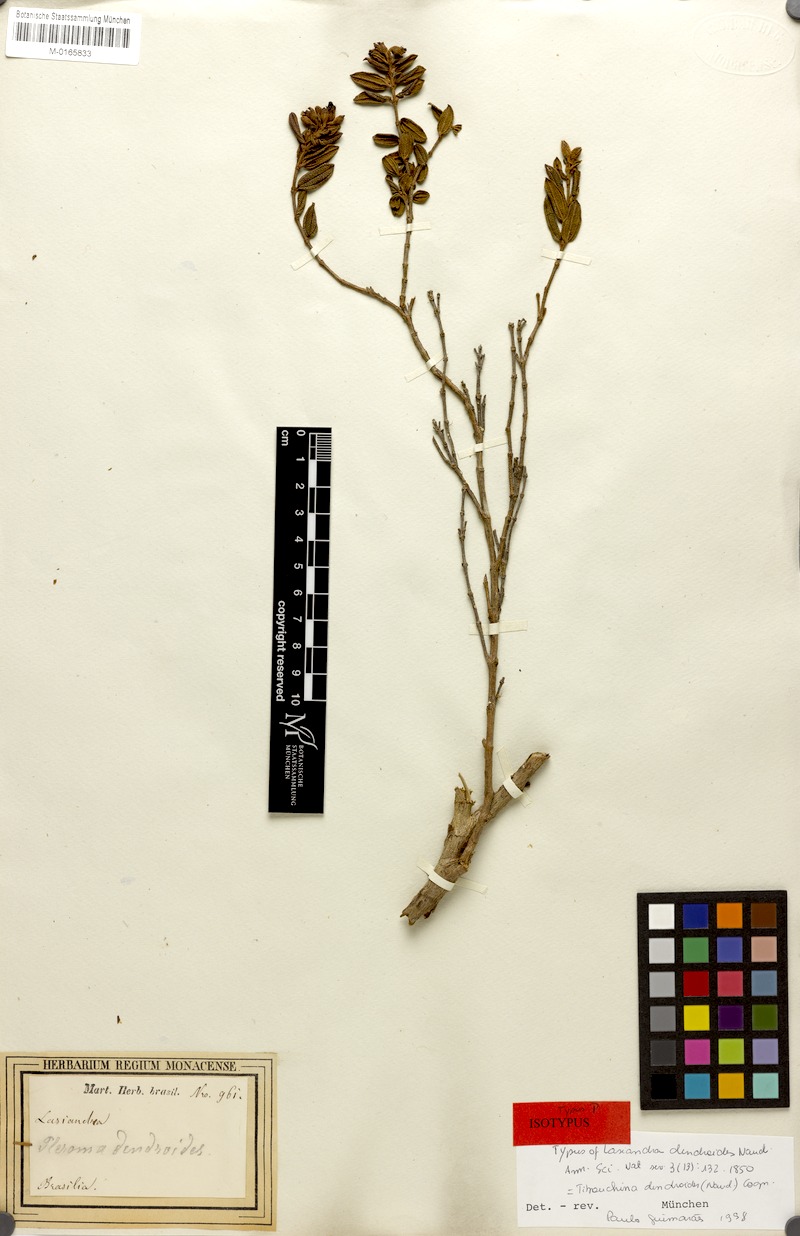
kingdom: Plantae
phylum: Tracheophyta
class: Magnoliopsida
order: Myrtales
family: Melastomataceae
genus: Pleroma
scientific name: Pleroma dendroides
